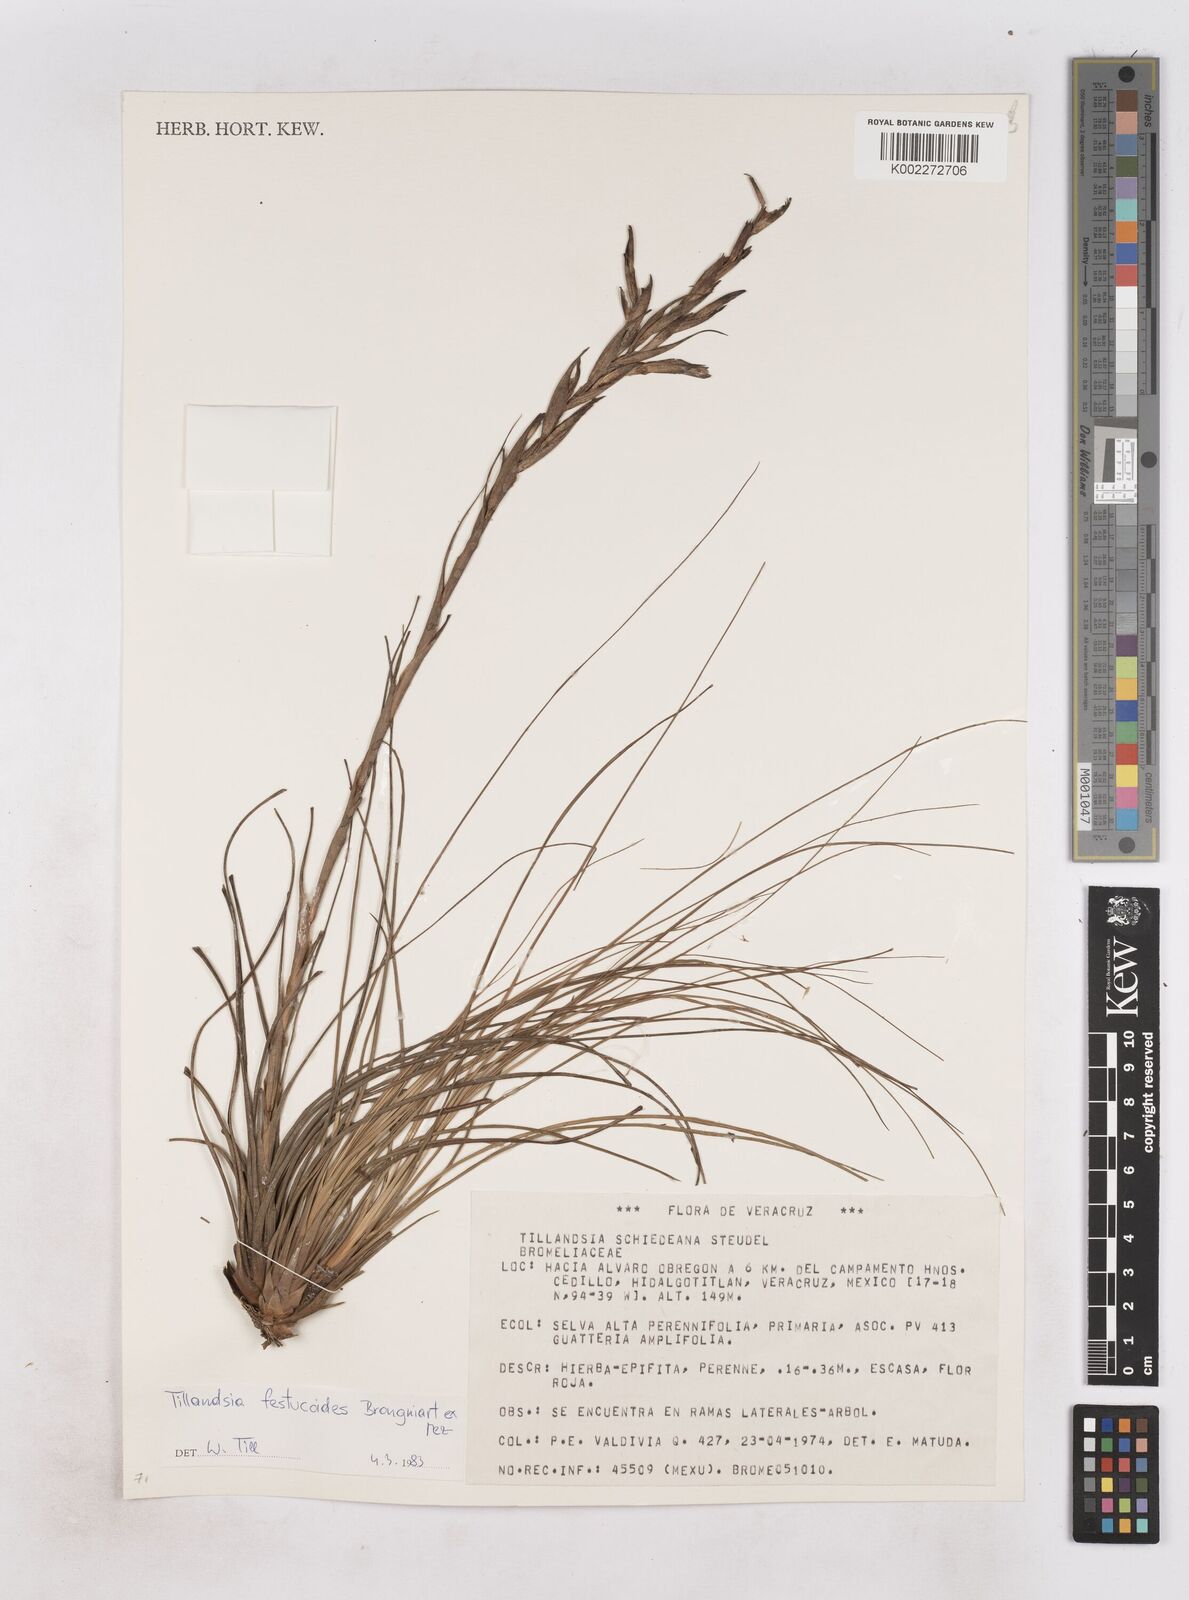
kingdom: Plantae
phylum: Tracheophyta
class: Liliopsida
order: Poales
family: Bromeliaceae
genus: Tillandsia
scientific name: Tillandsia festucoides
